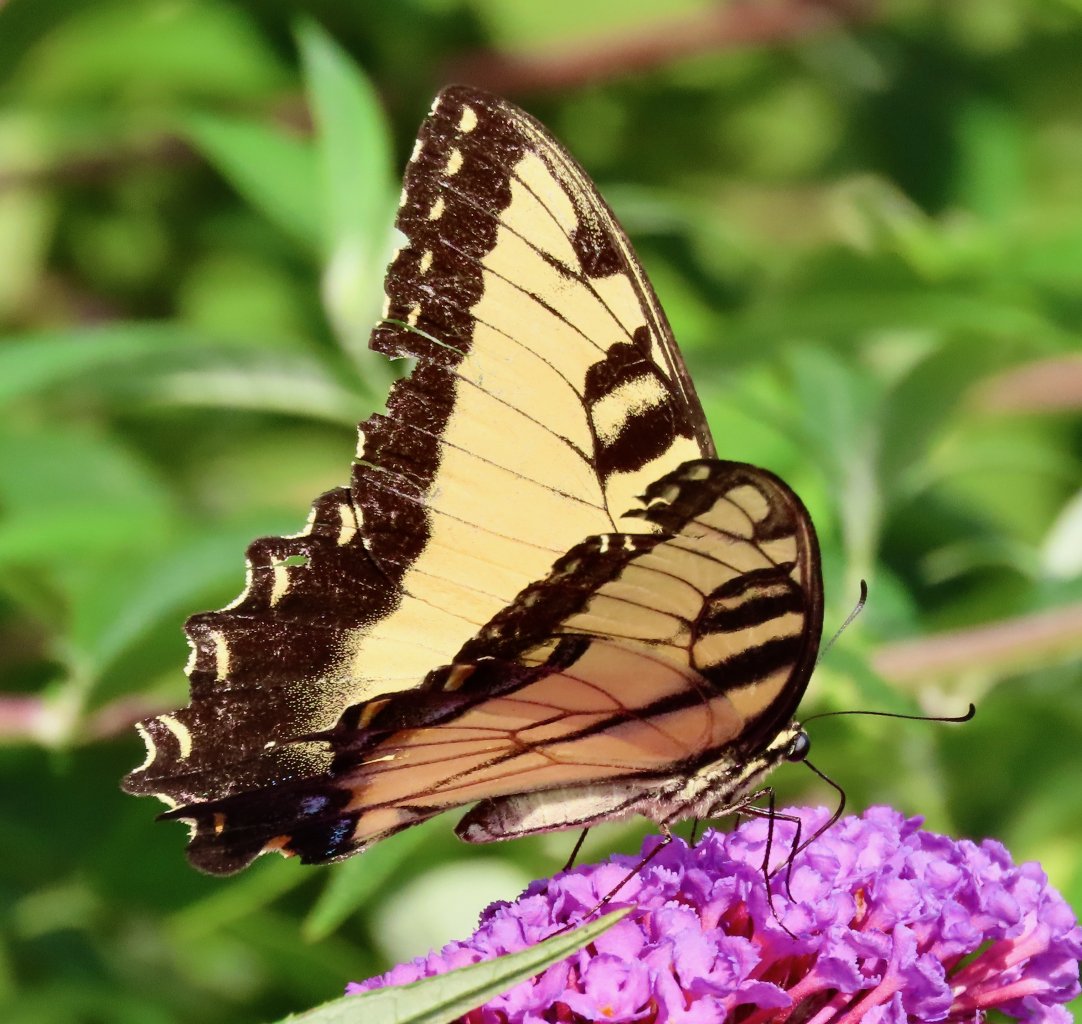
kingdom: Animalia
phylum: Arthropoda
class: Insecta
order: Lepidoptera
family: Papilionidae
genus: Pterourus
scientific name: Pterourus glaucus
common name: Eastern Tiger Swallowtail
